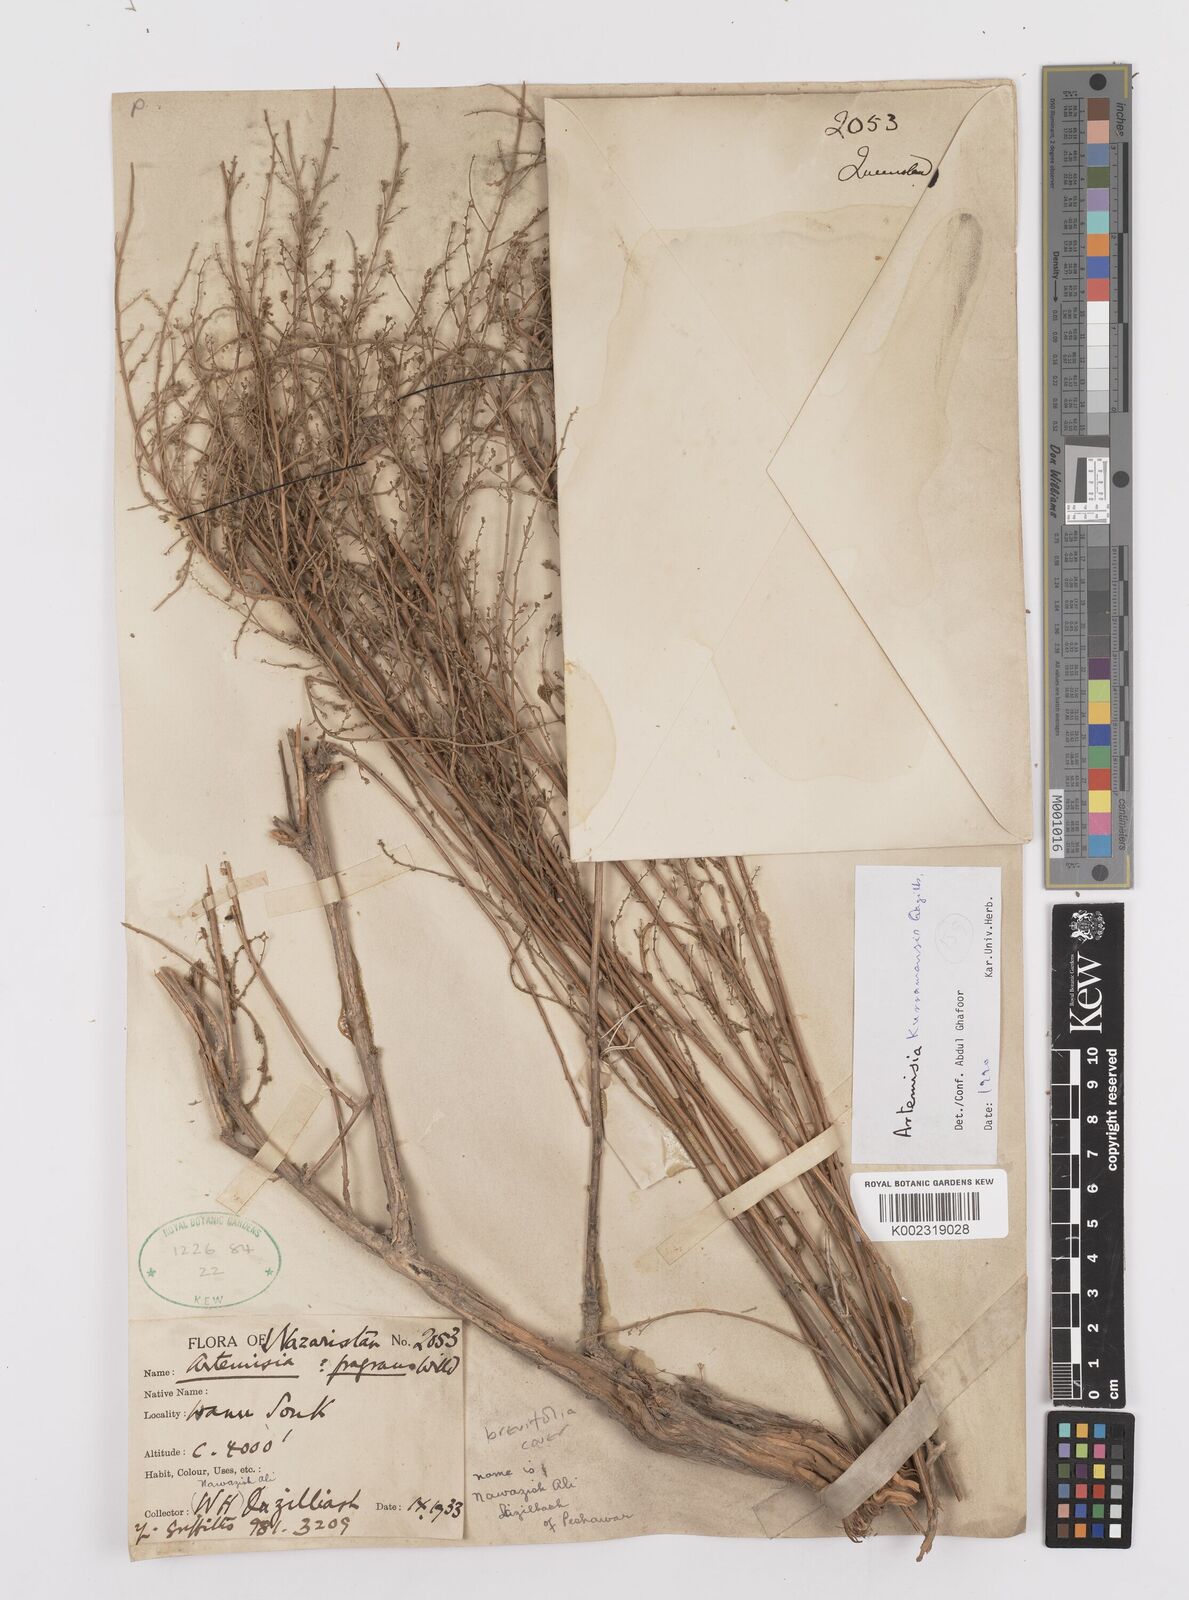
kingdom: Plantae
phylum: Tracheophyta
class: Magnoliopsida
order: Asterales
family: Asteraceae
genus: Artemisia
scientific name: Artemisia kurramensis
